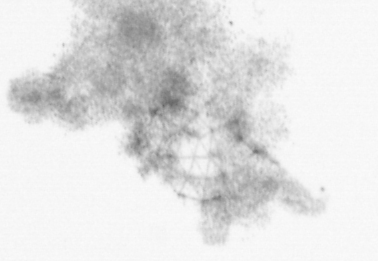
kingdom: Animalia
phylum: Chordata
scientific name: Chordata
